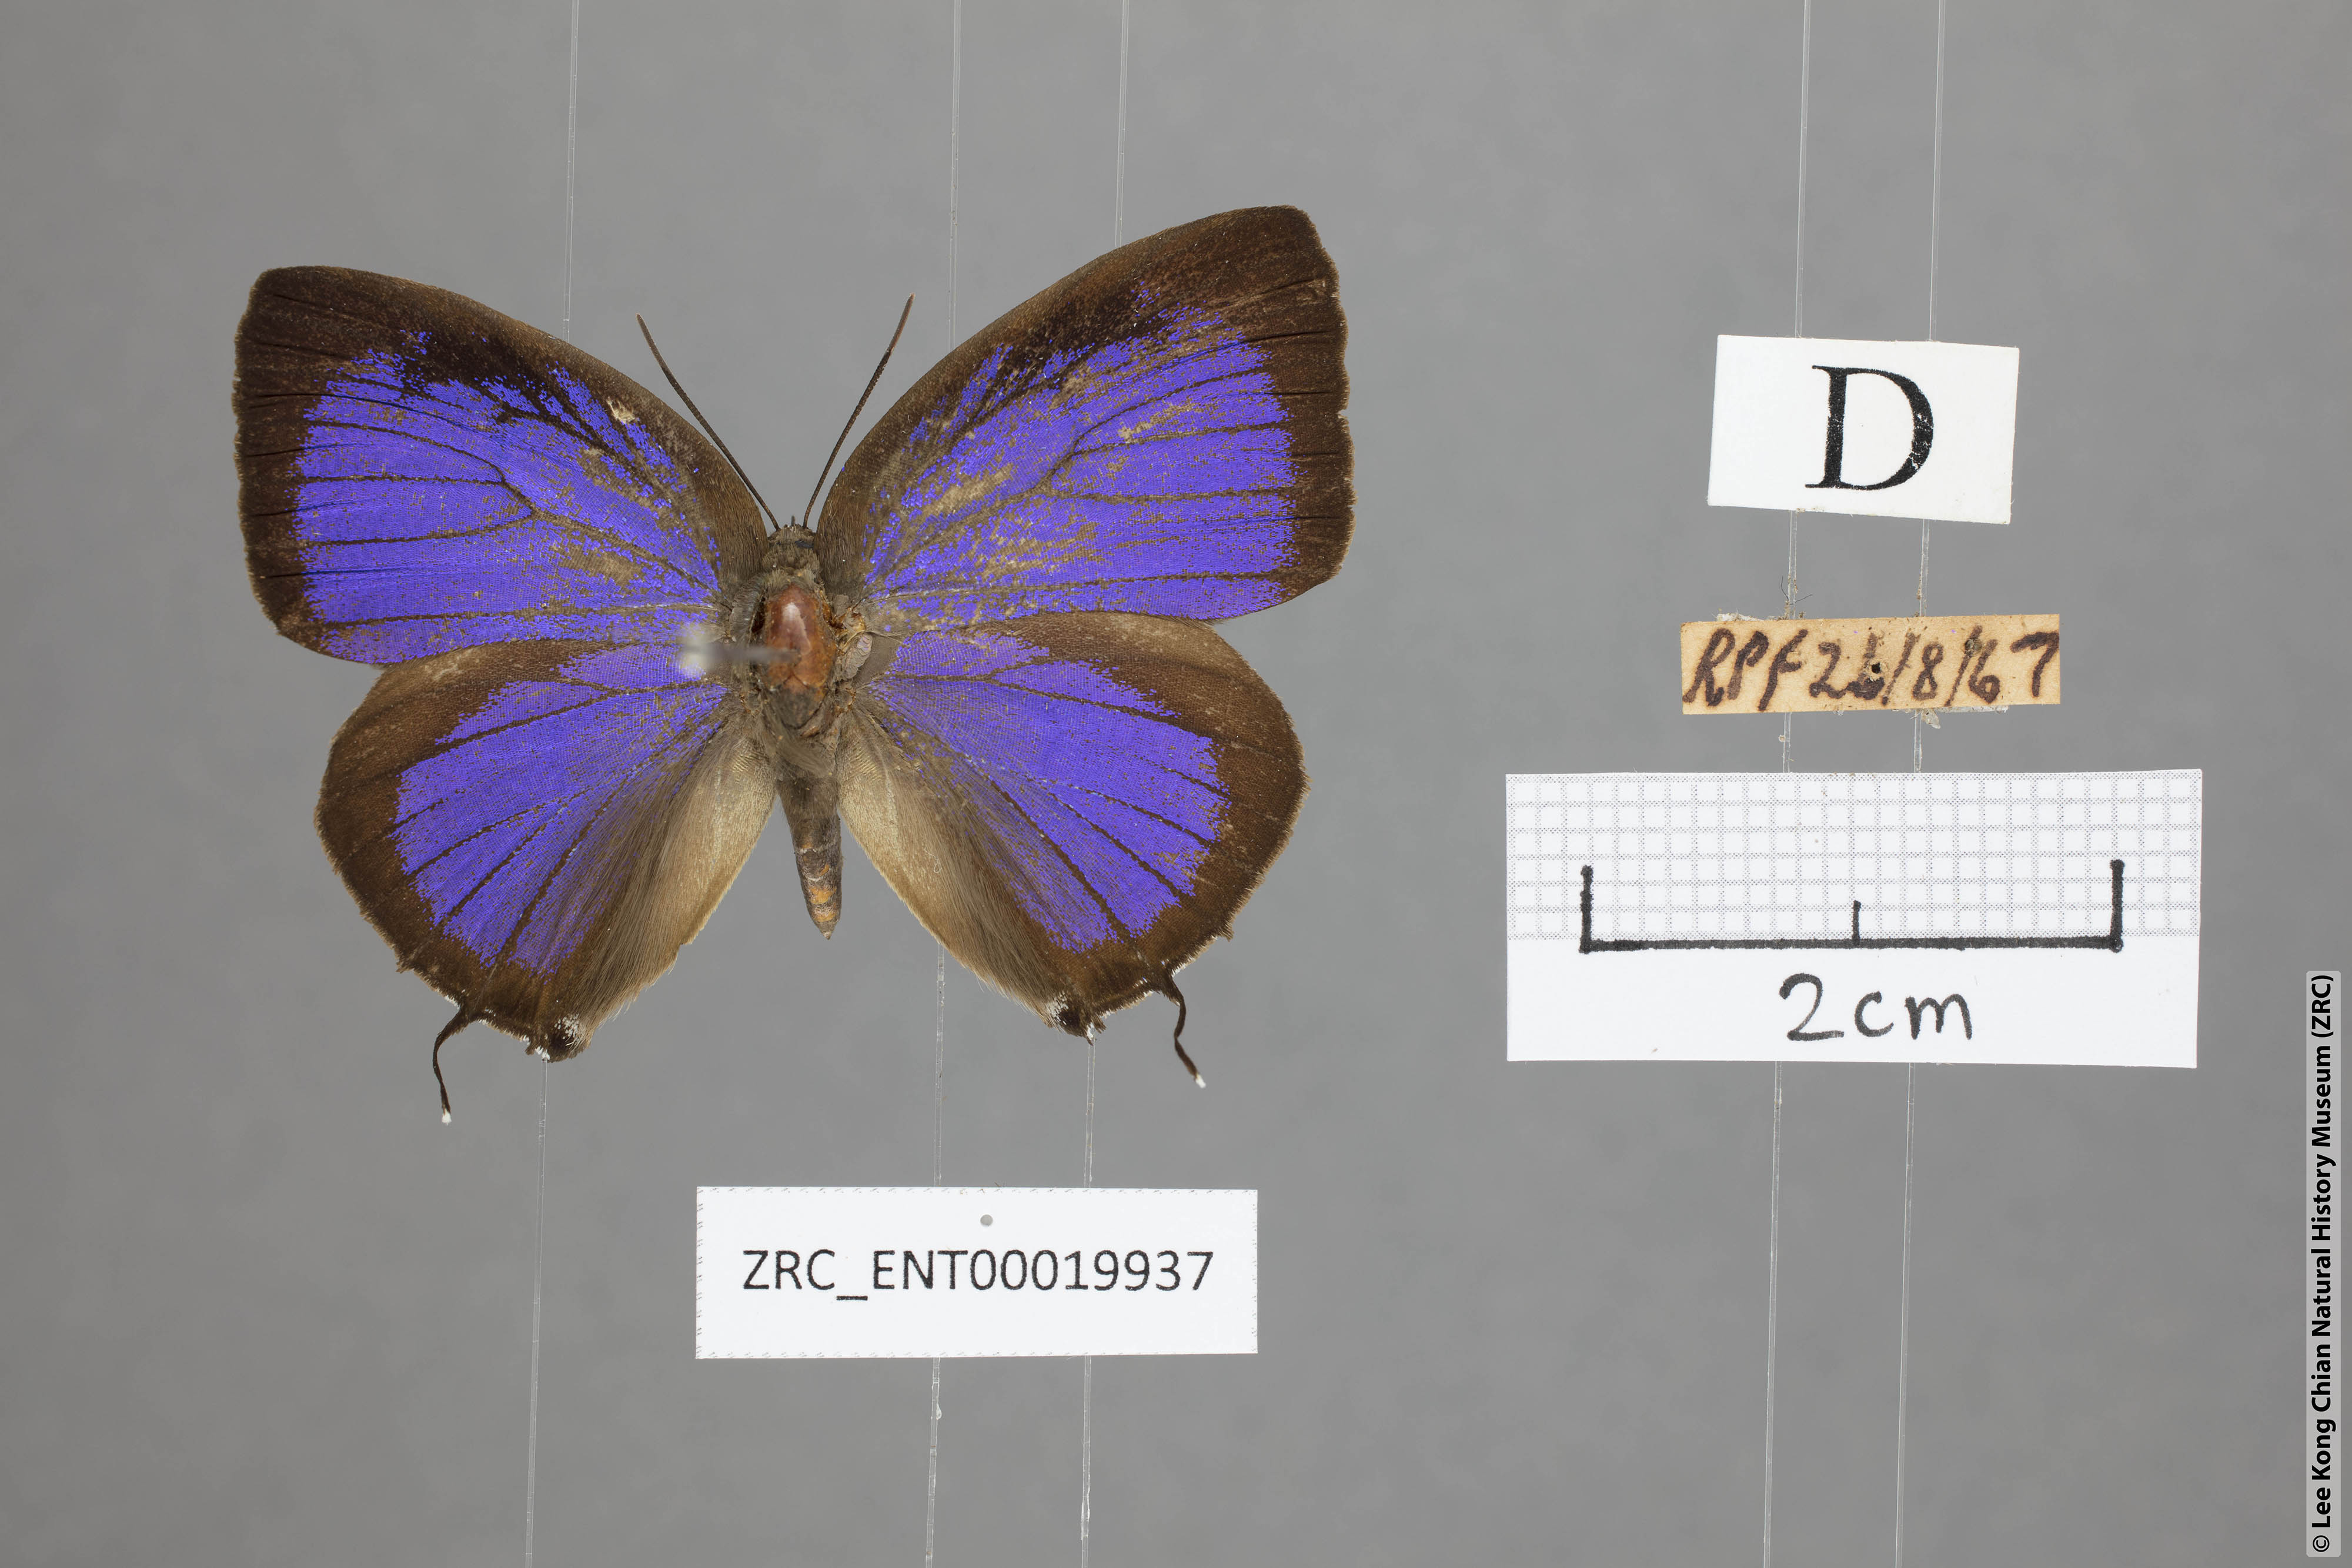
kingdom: Animalia
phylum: Arthropoda
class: Insecta
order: Lepidoptera
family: Lycaenidae
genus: Arhopala
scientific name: Arhopala zambra
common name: Zambra oakblue
